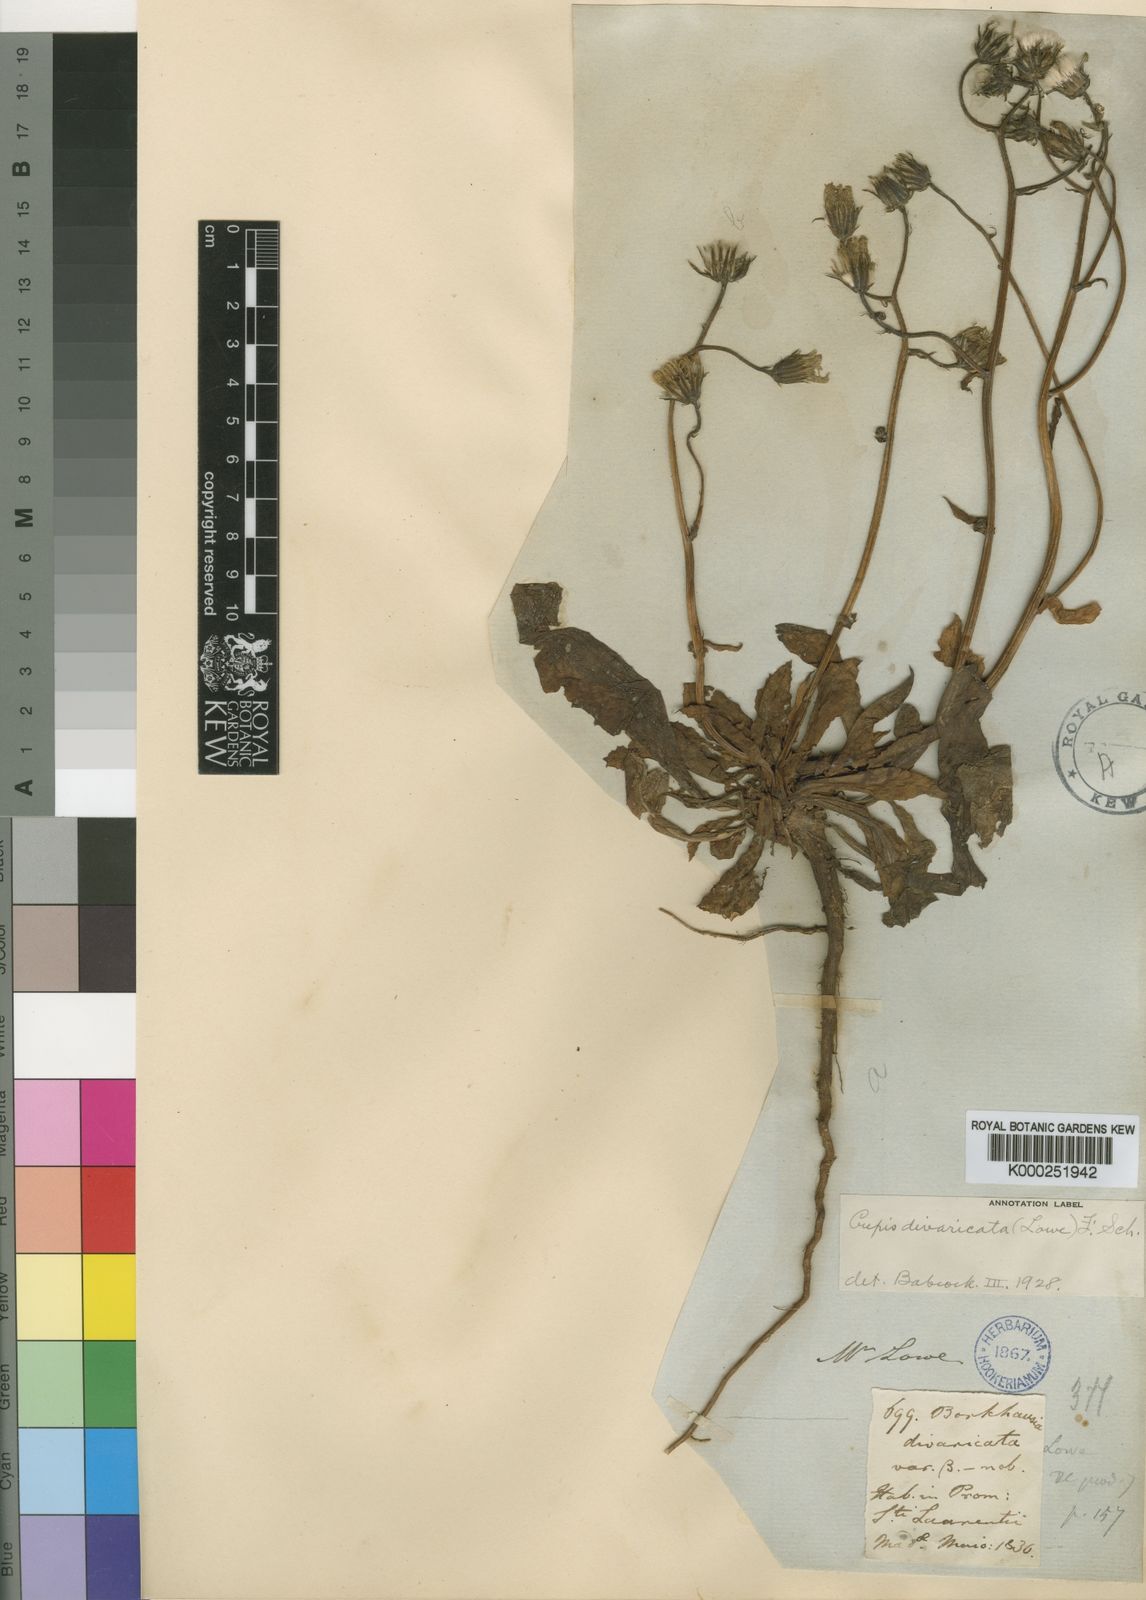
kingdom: Plantae
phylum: Tracheophyta
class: Magnoliopsida
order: Asterales
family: Asteraceae
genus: Crepis
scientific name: Crepis divaricata
